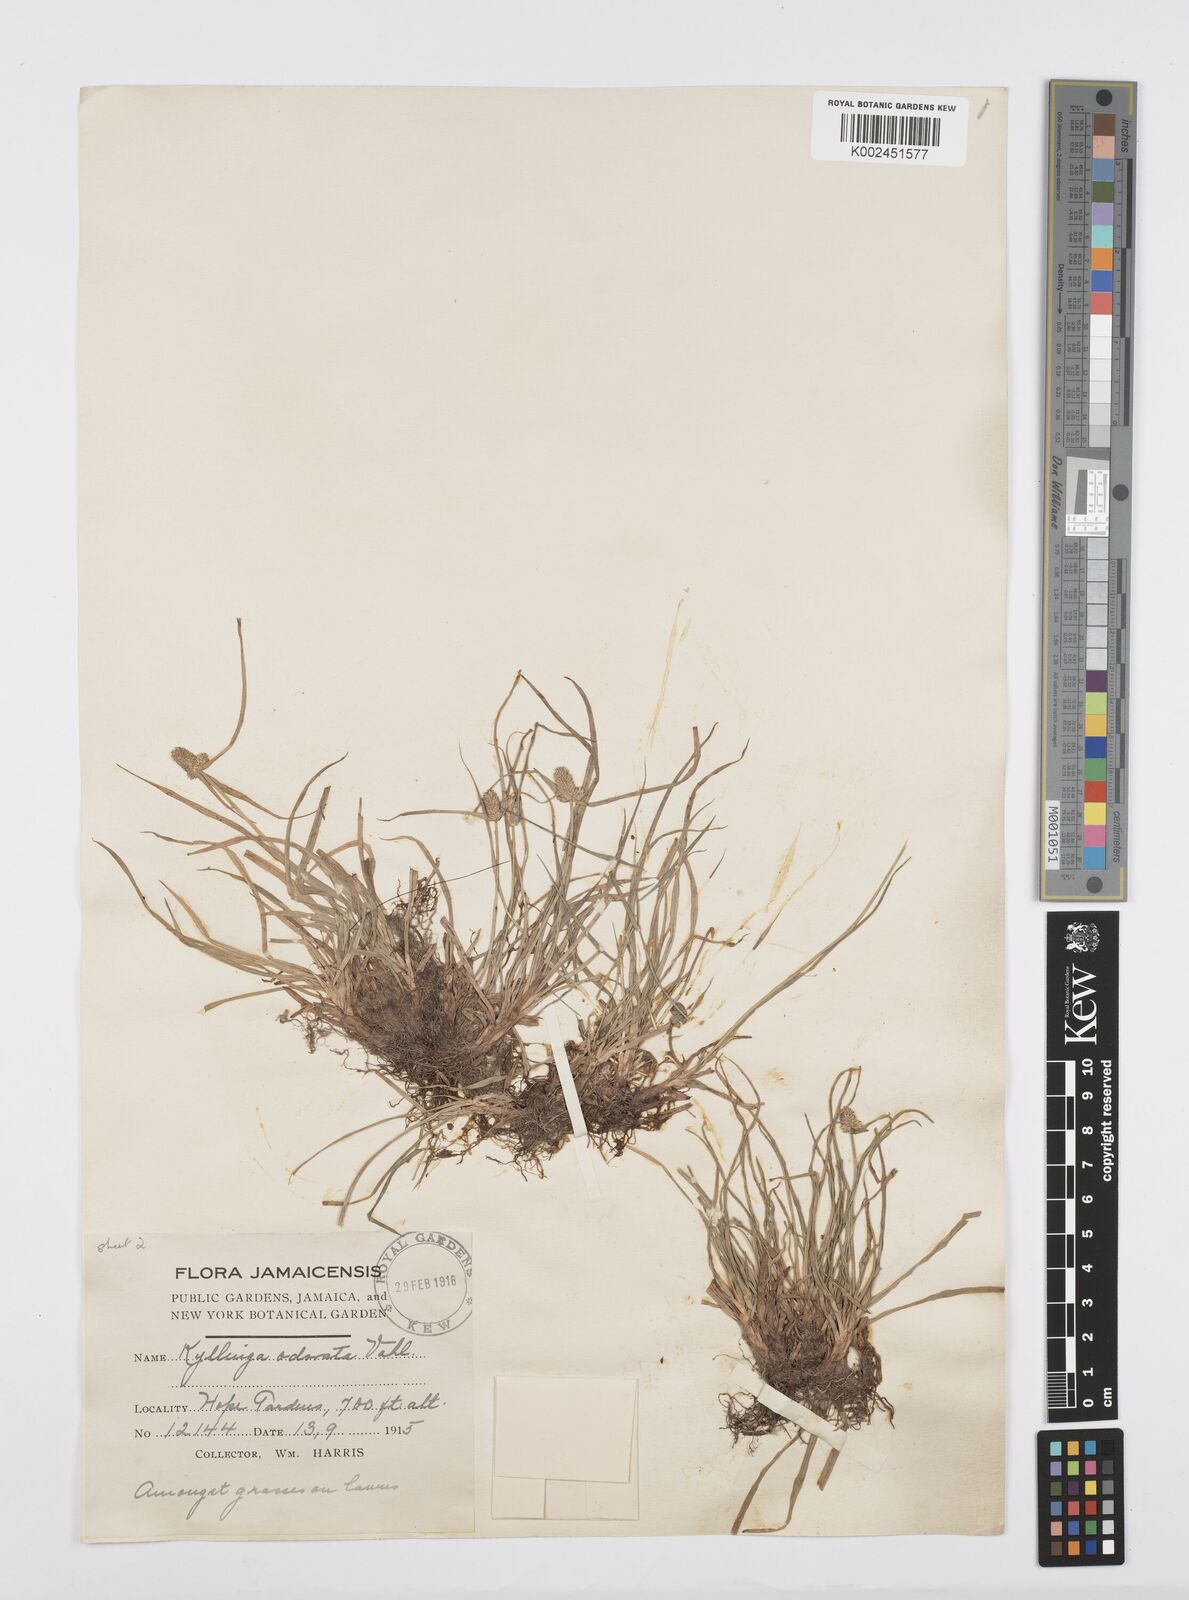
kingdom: Plantae
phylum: Tracheophyta
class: Liliopsida
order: Poales
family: Cyperaceae
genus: Cyperus
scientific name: Cyperus
